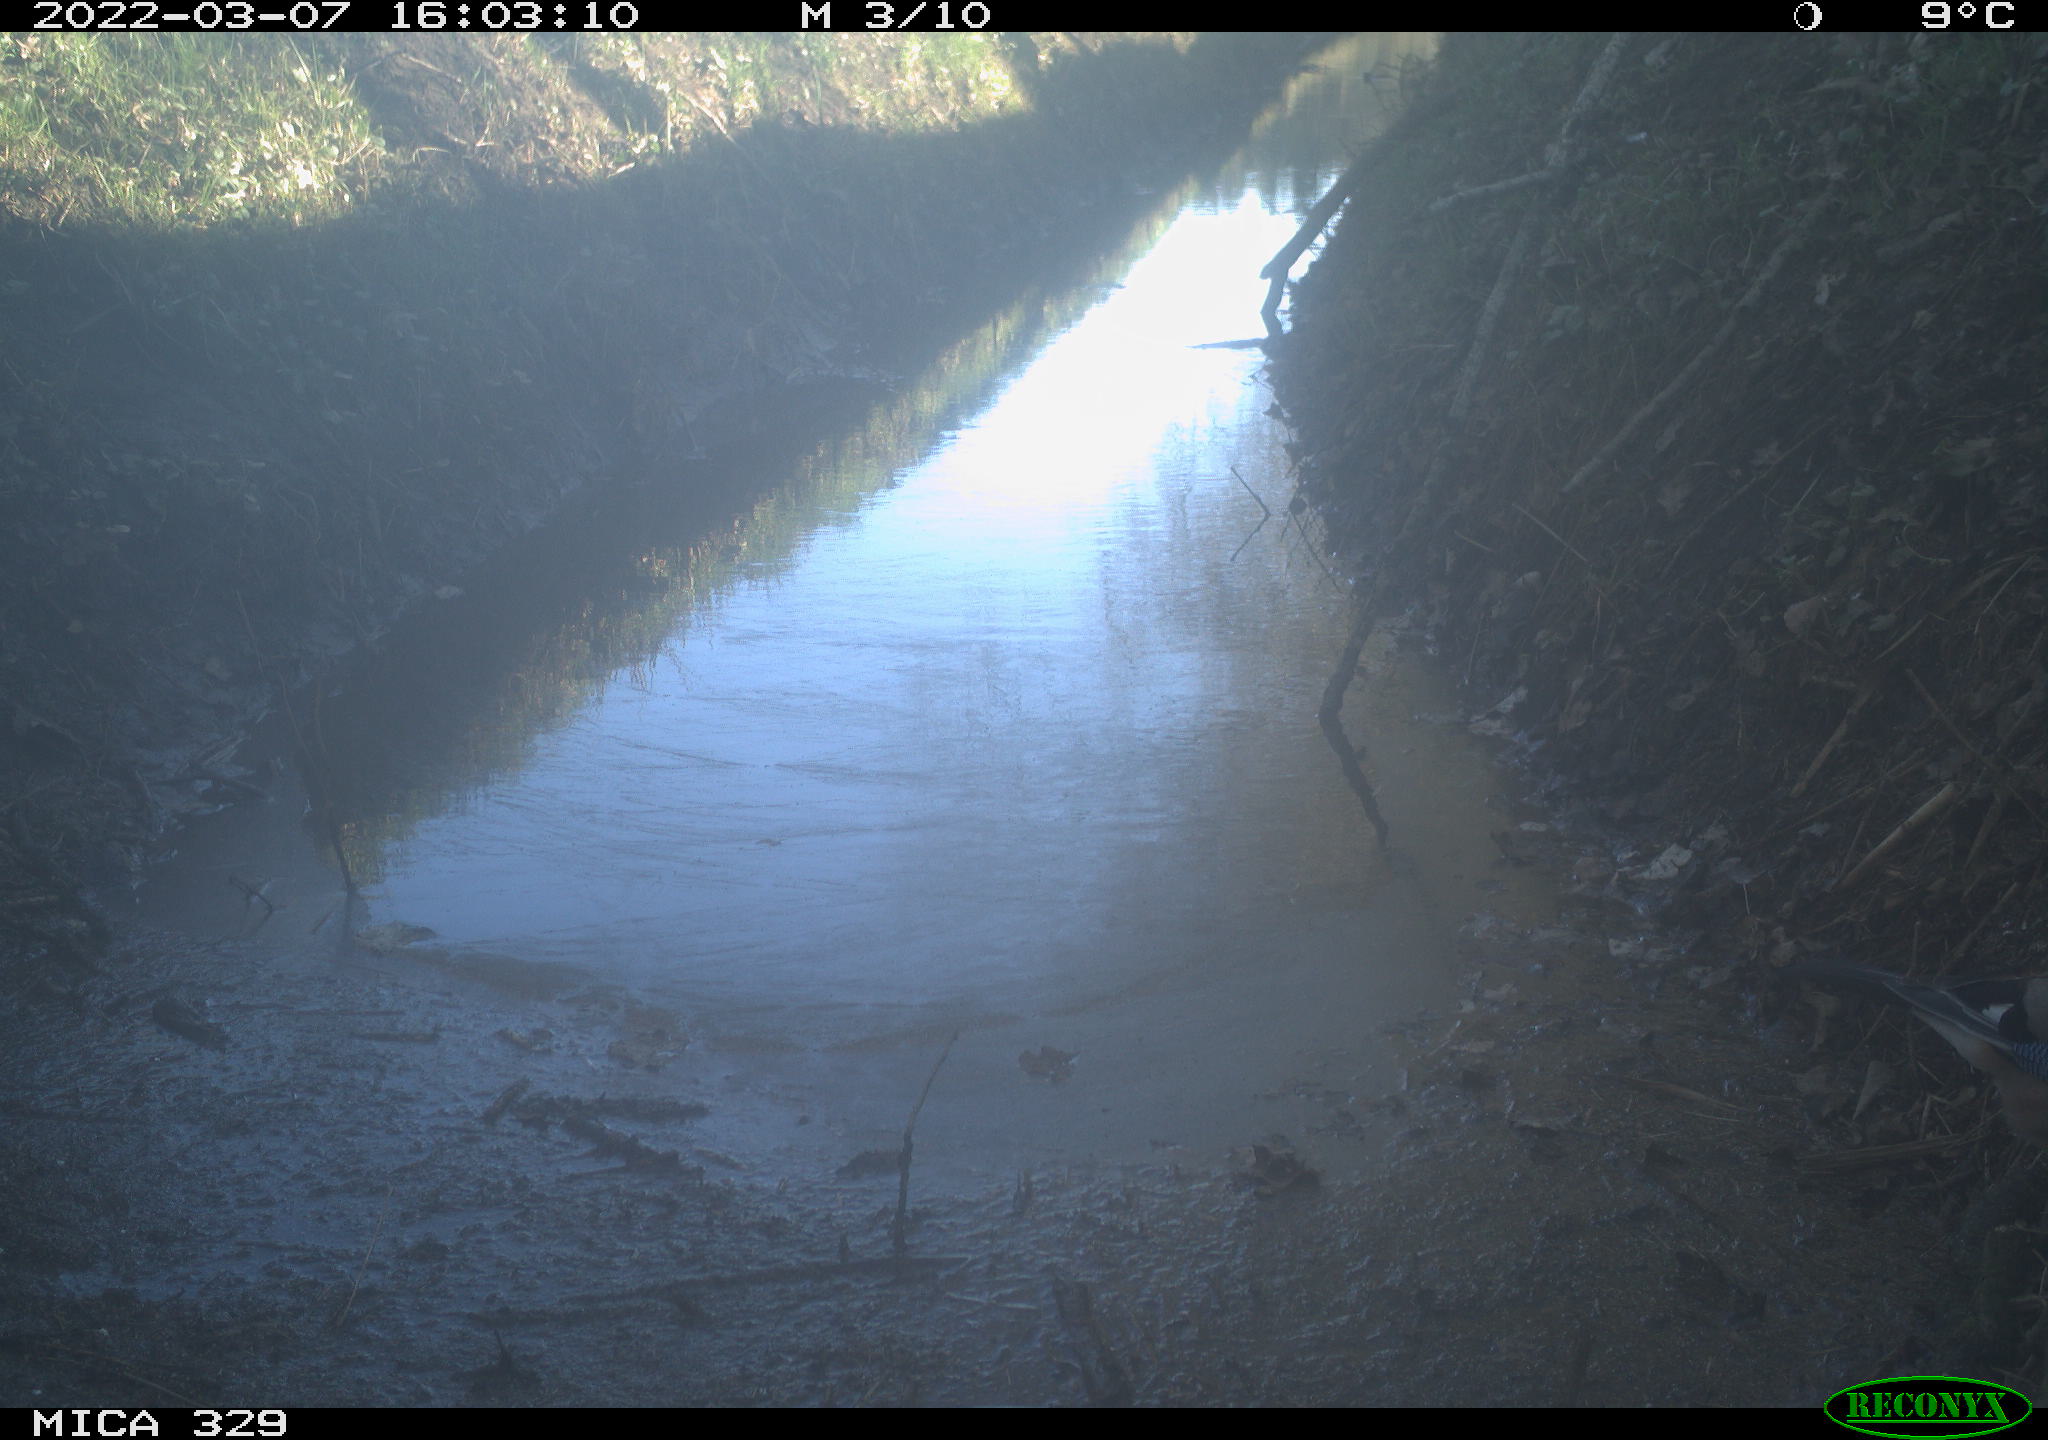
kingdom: Animalia
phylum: Chordata
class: Aves
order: Passeriformes
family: Corvidae
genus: Garrulus
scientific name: Garrulus glandarius
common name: Eurasian jay
